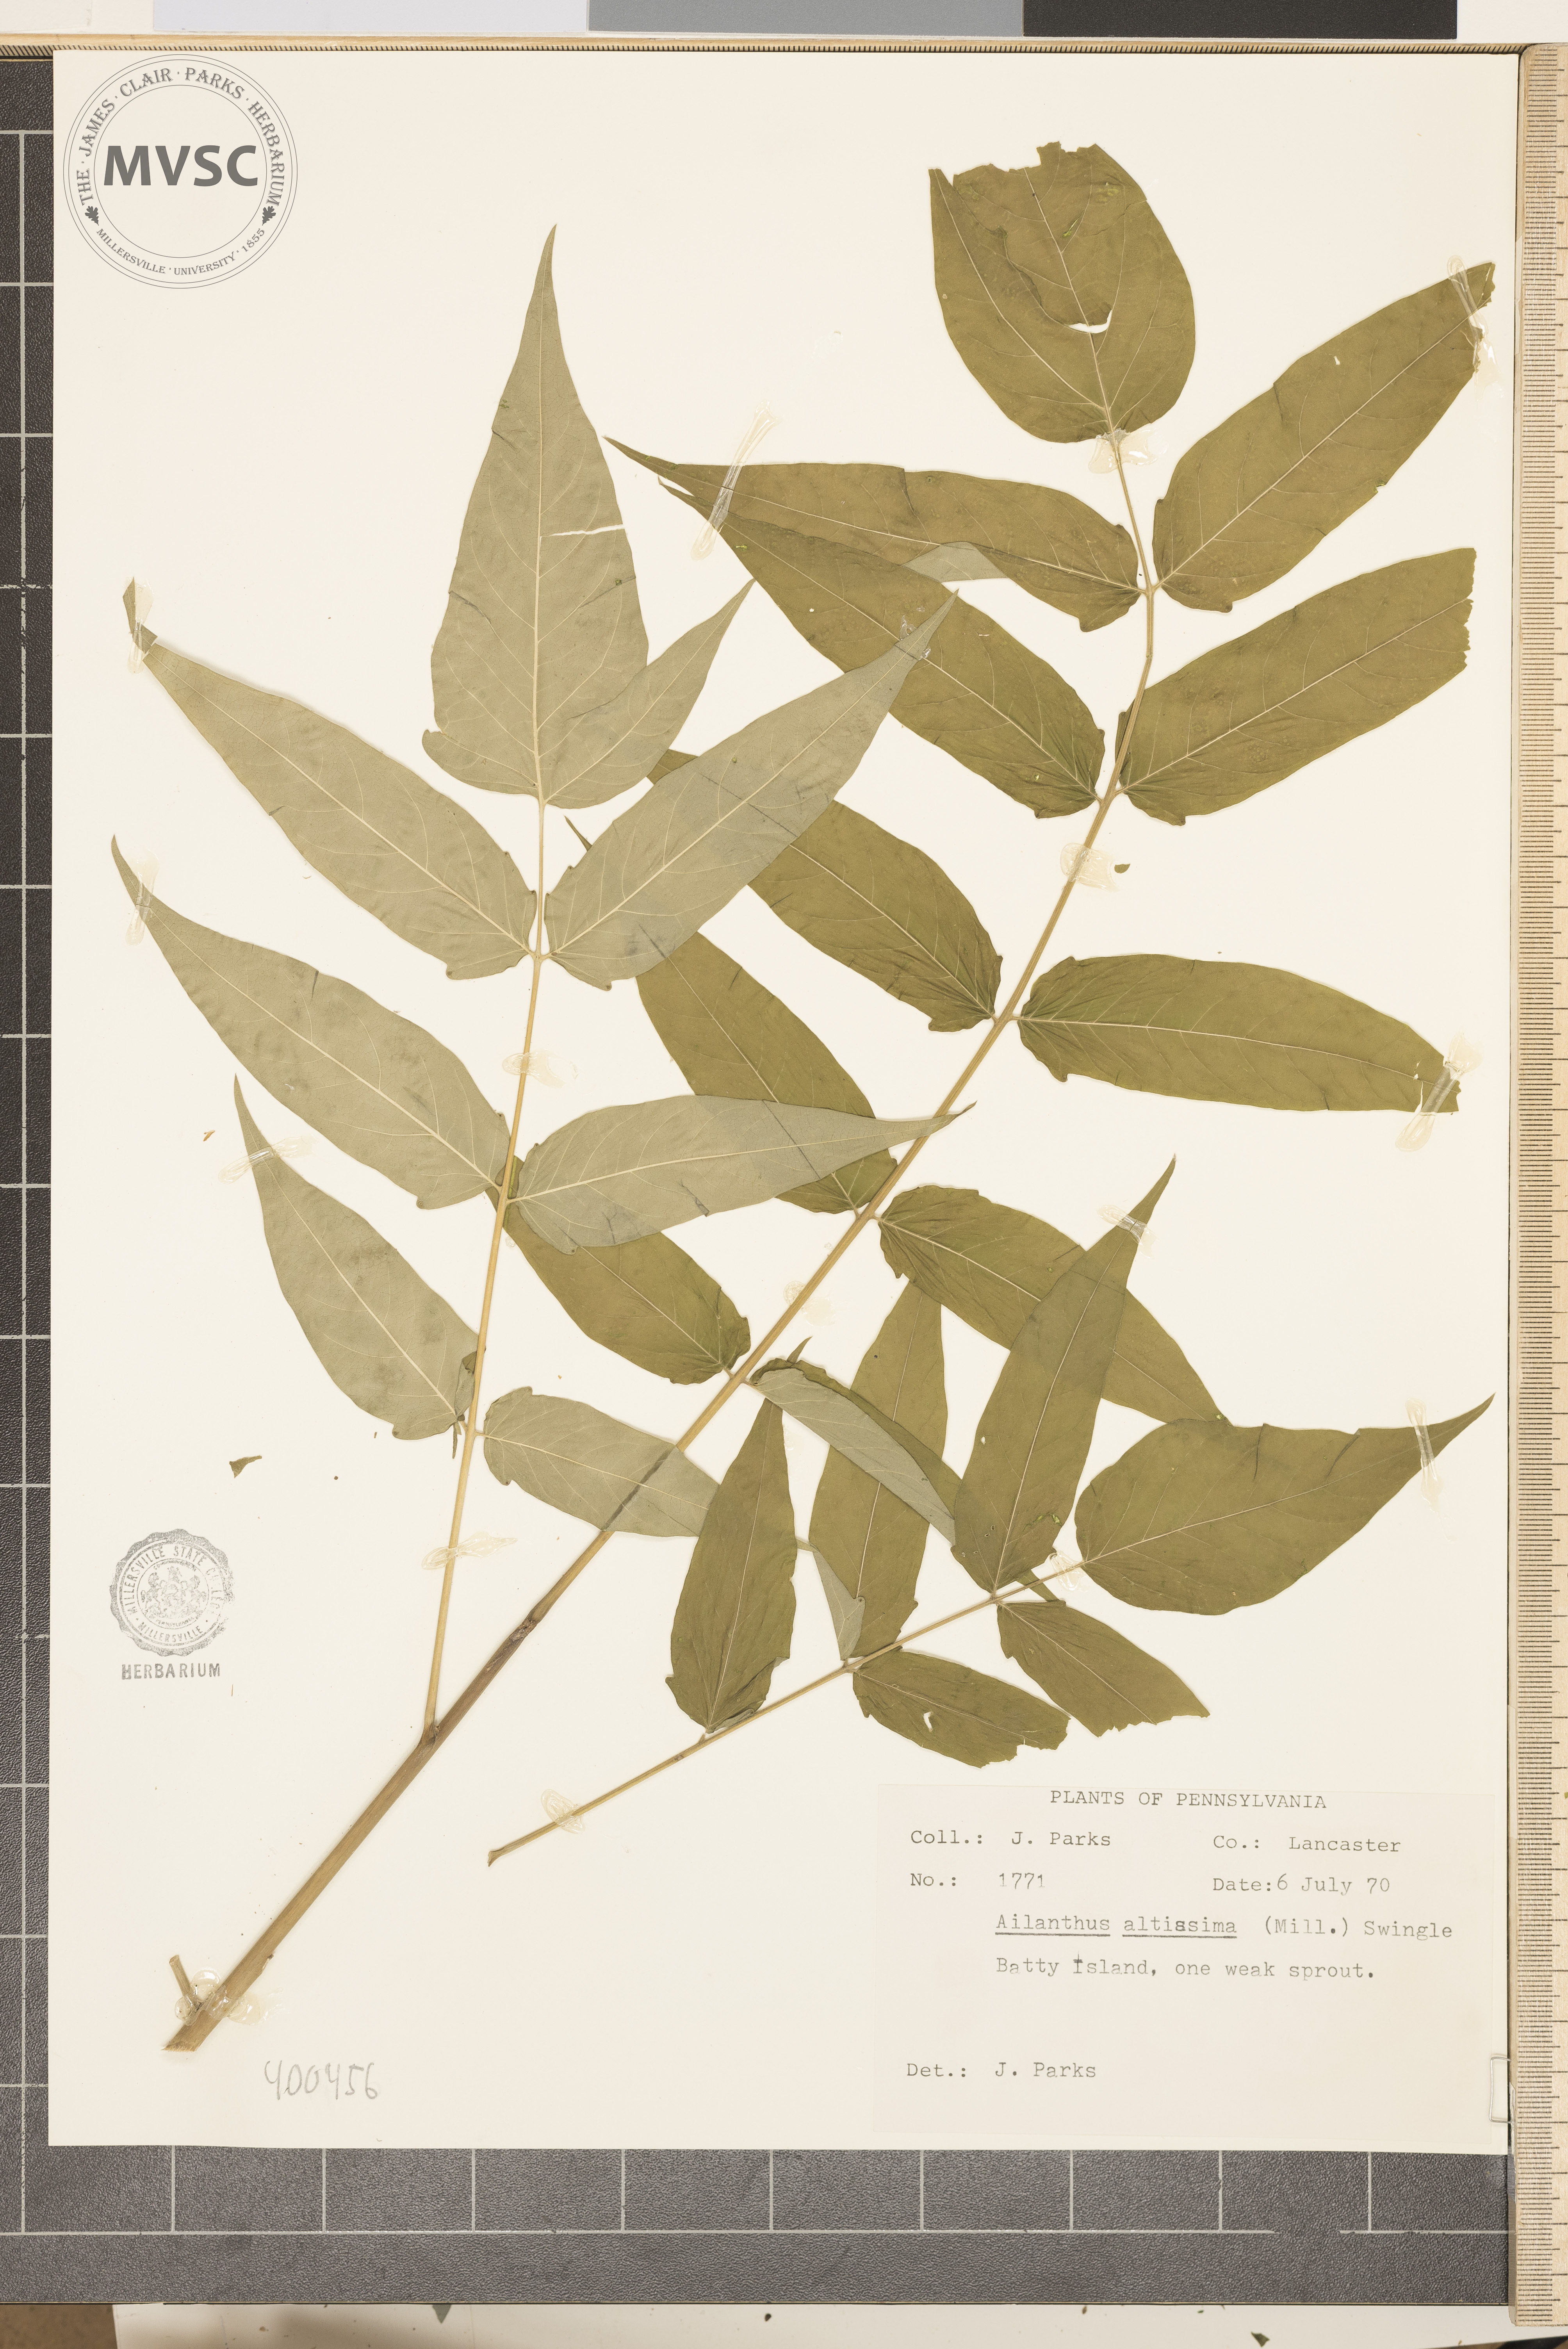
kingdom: Plantae
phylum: Tracheophyta
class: Magnoliopsida
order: Sapindales
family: Simaroubaceae
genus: Ailanthus
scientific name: Ailanthus altissima
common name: tree-of-heaven
